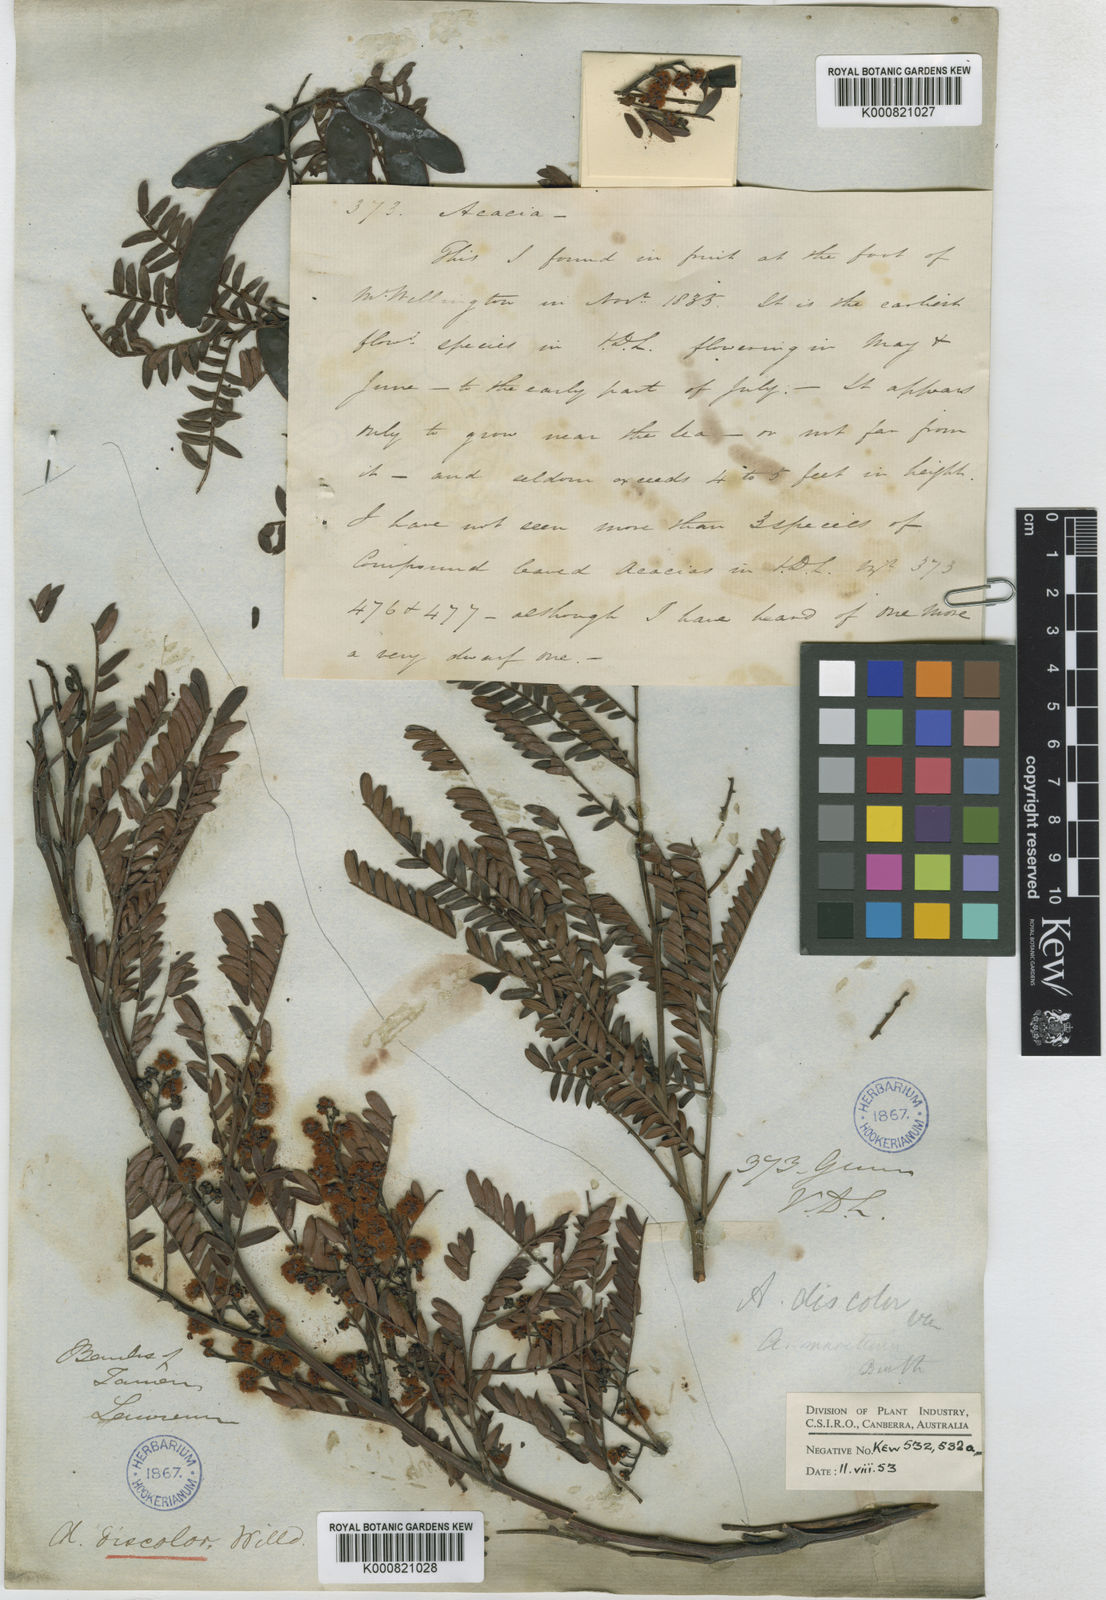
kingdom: Plantae
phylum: Tracheophyta
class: Magnoliopsida
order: Fabales
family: Fabaceae
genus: Acacia
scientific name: Acacia terminalis
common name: Cedar wattle
